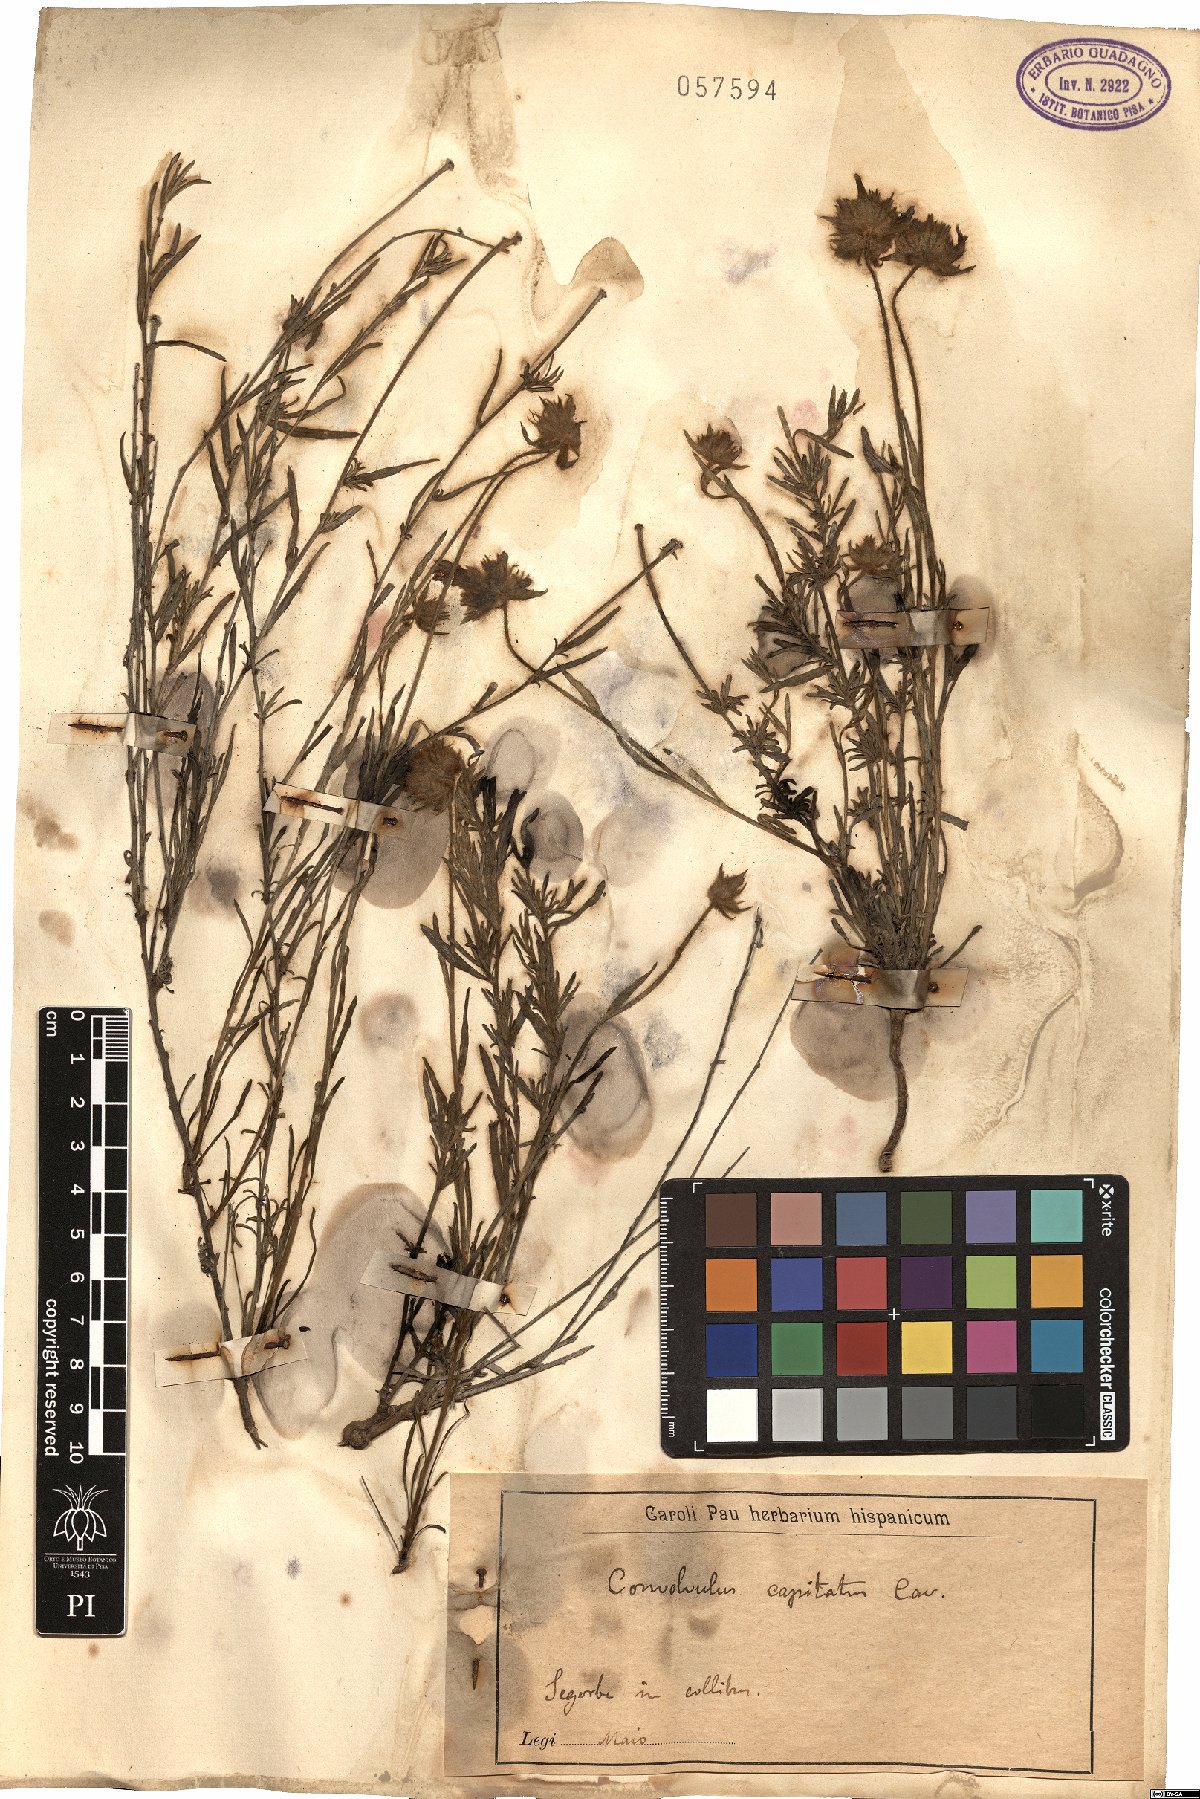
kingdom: Plantae
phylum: Tracheophyta
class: Magnoliopsida
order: Solanales
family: Convolvulaceae
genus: Jacquemontia
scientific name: Jacquemontia tamnifolia
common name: Hairy clustervine
